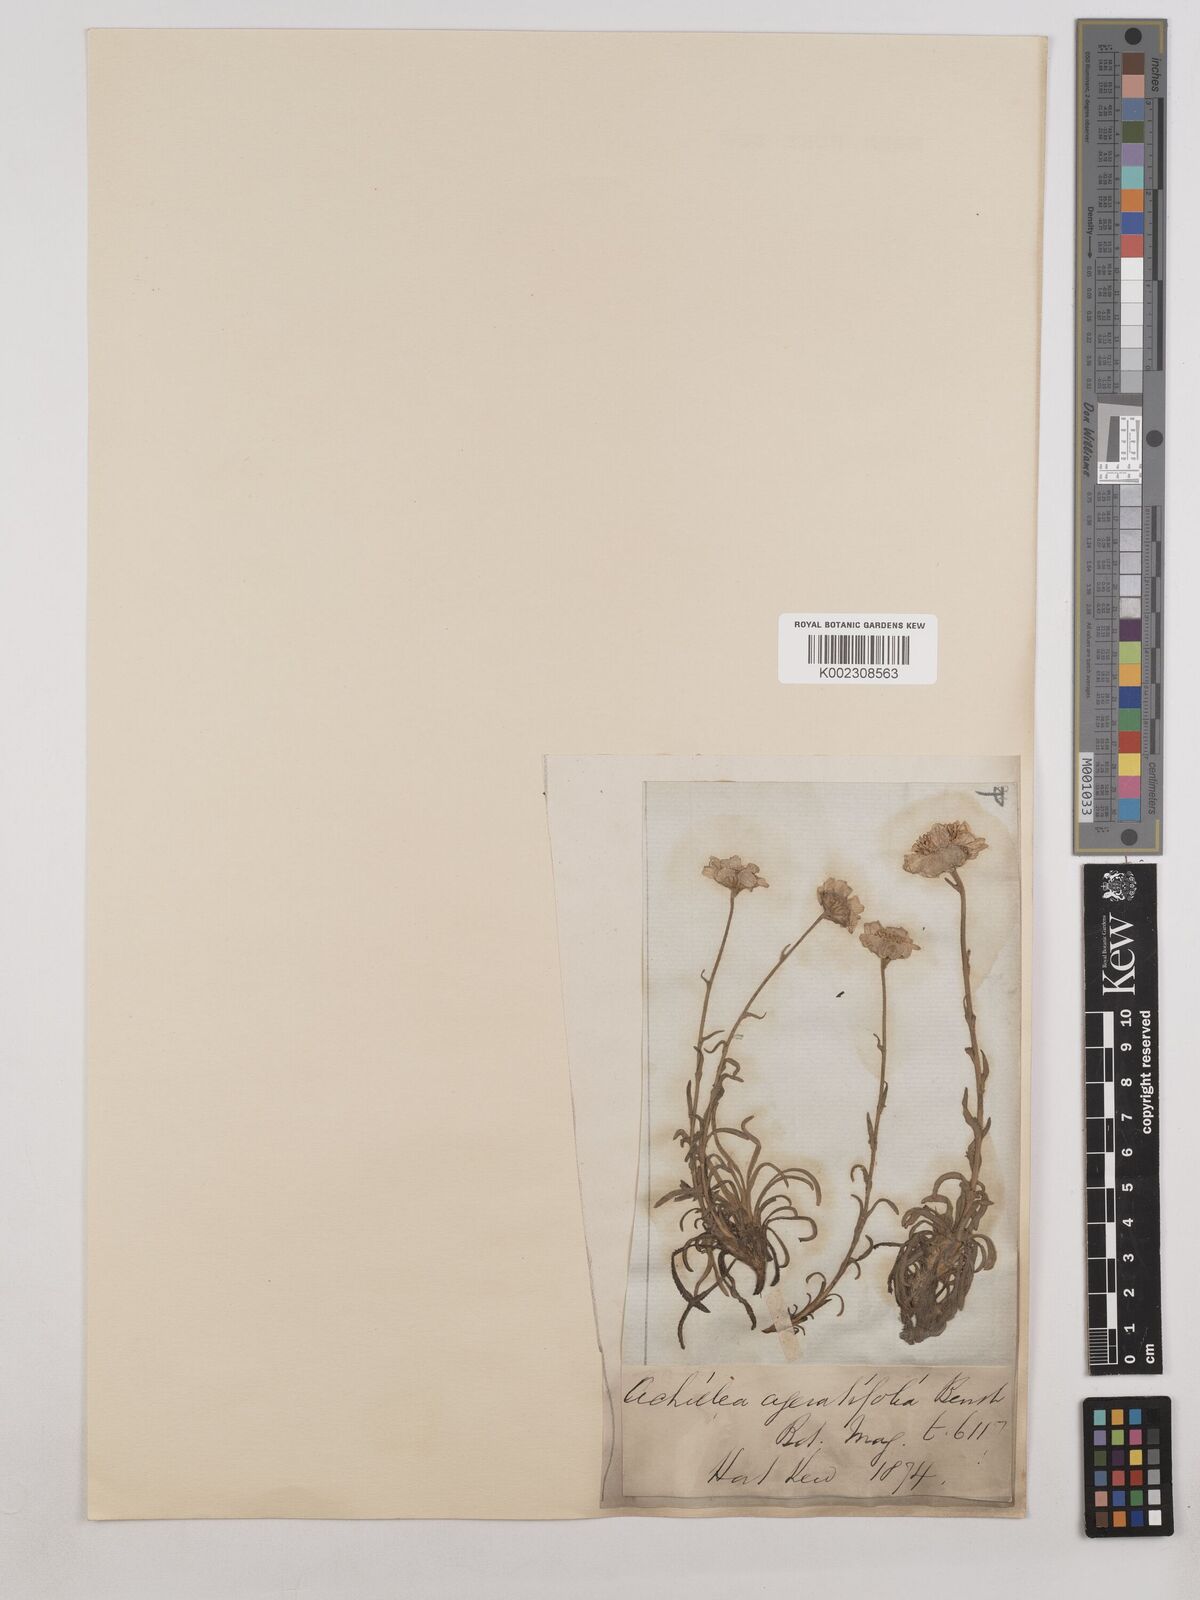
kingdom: Plantae
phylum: Tracheophyta
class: Magnoliopsida
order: Asterales
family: Asteraceae
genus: Achillea
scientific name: Achillea ageratifolia
